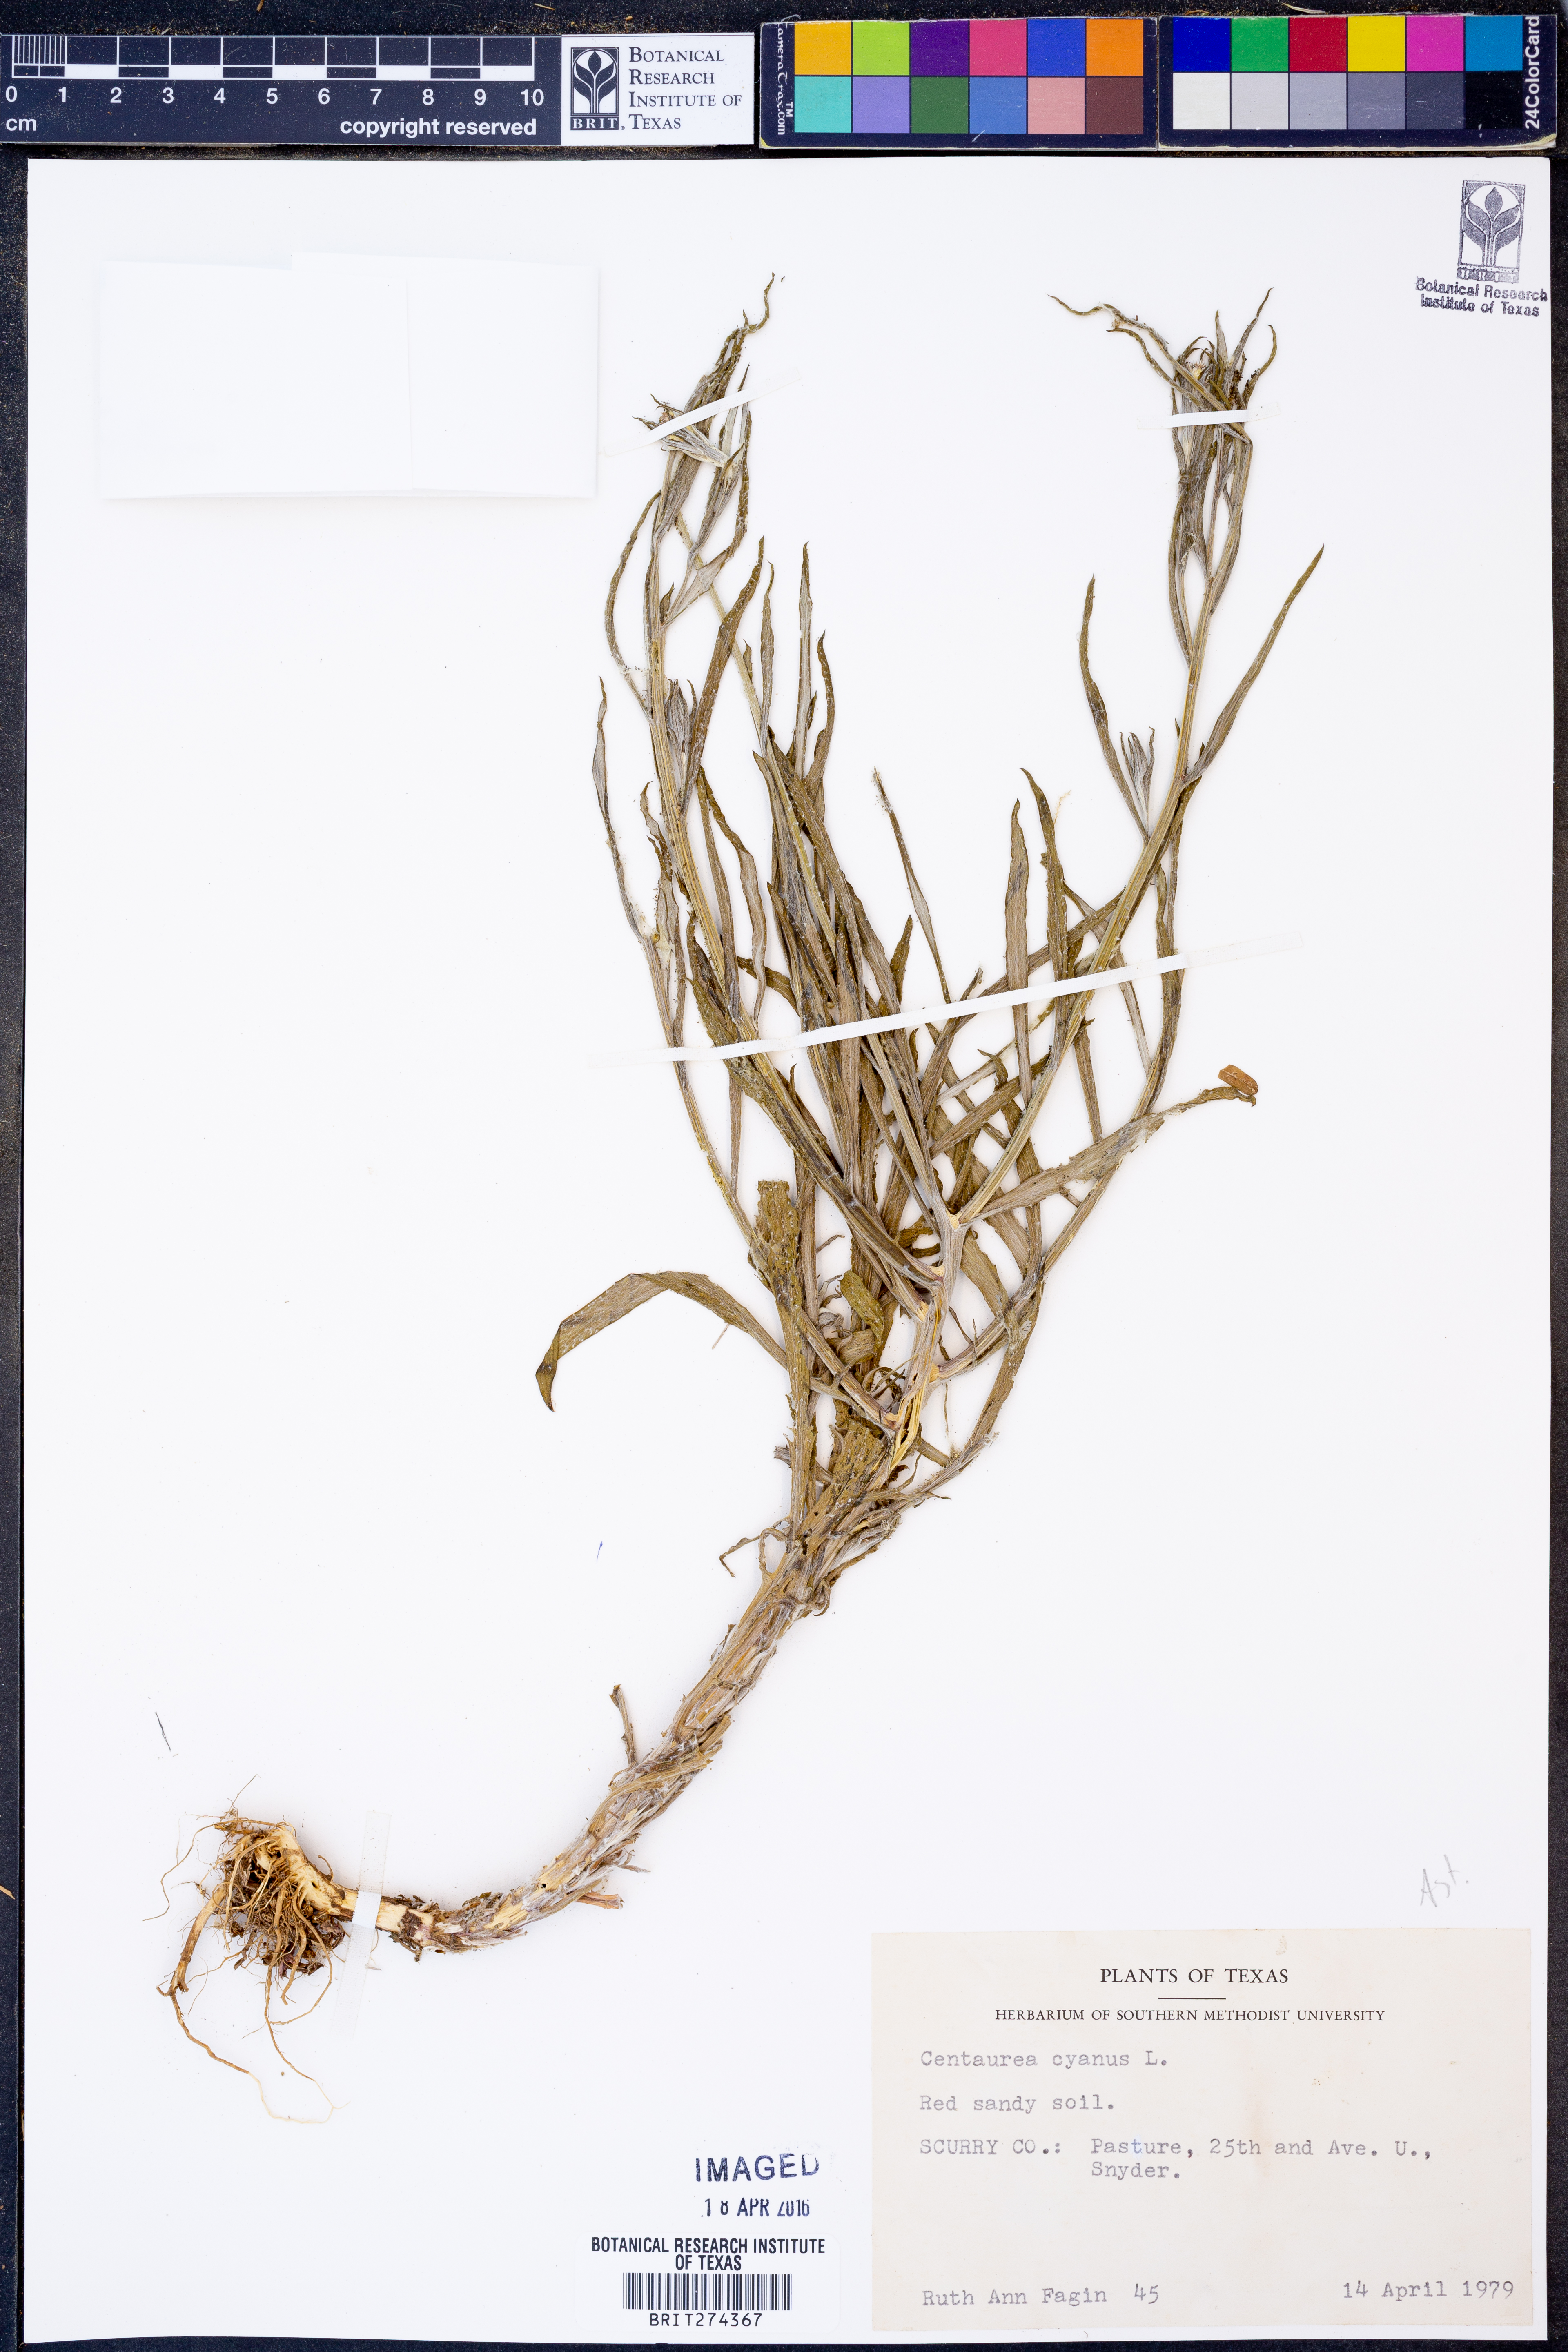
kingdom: Plantae
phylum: Tracheophyta
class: Magnoliopsida
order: Asterales
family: Asteraceae
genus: Centaurea
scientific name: Centaurea cyanus
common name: Cornflower
